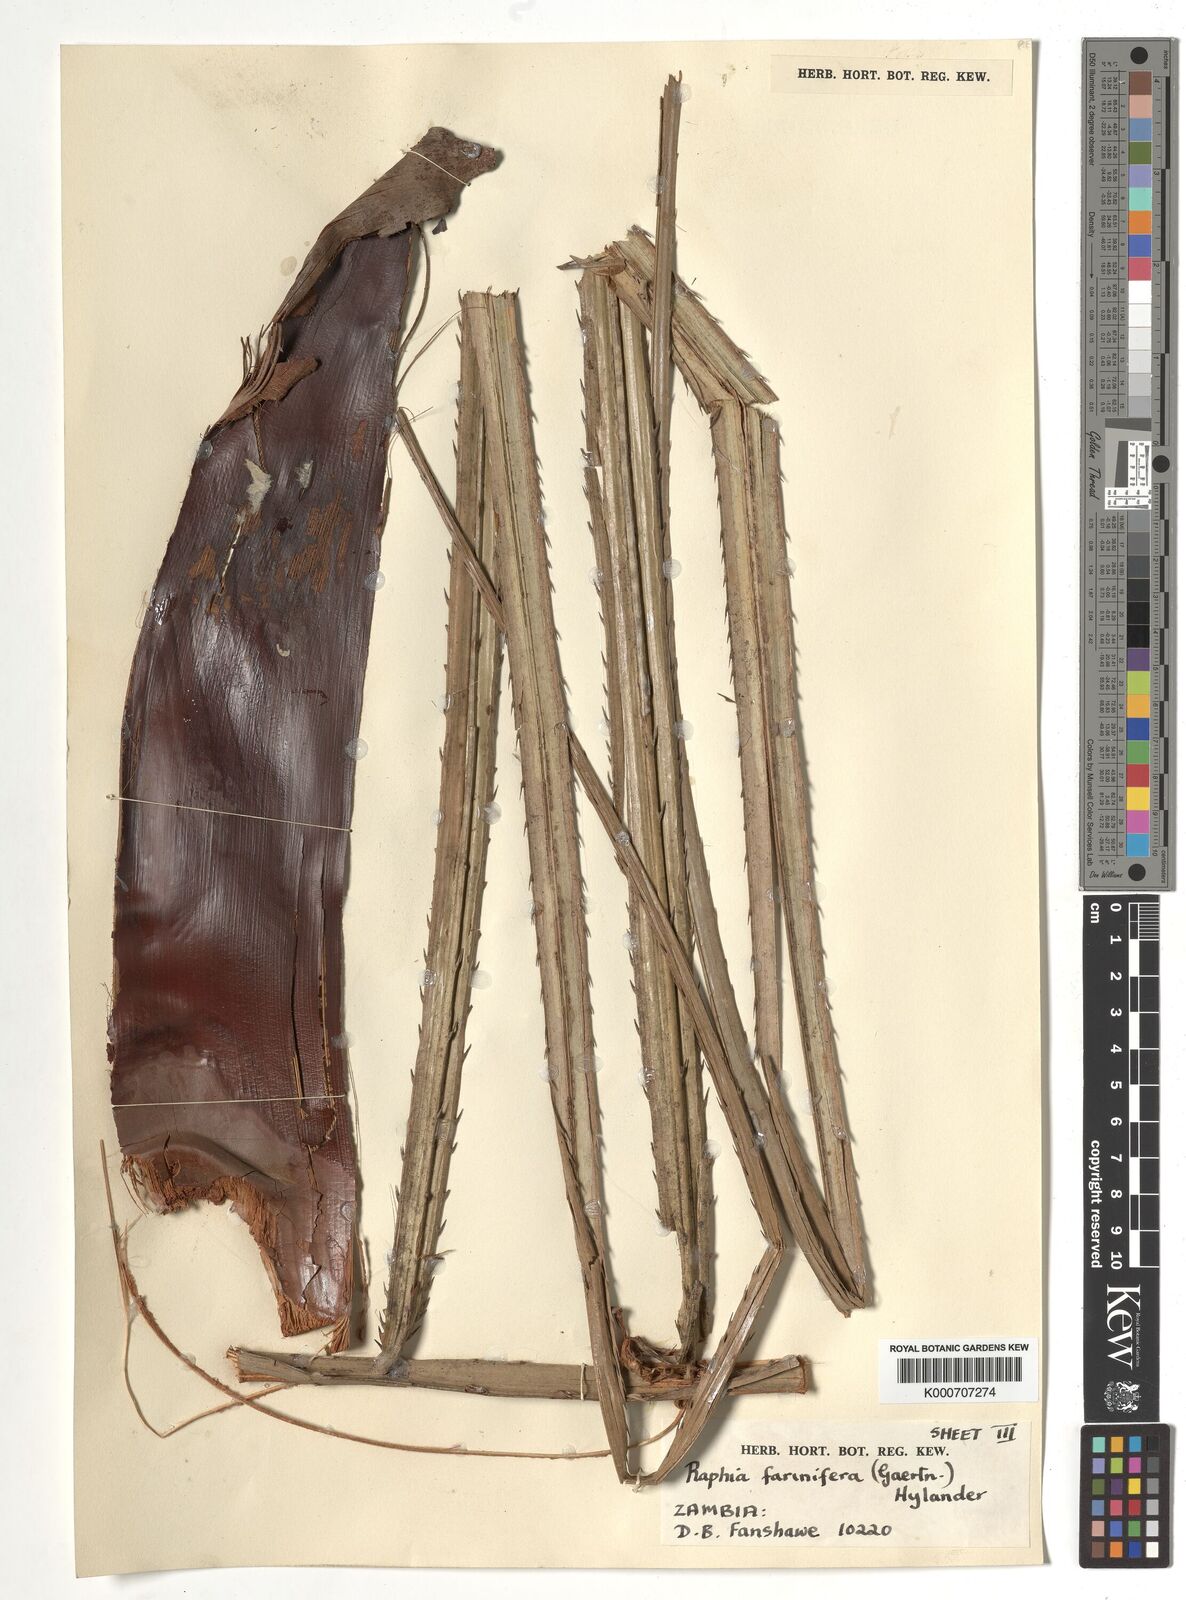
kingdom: Plantae
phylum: Tracheophyta
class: Liliopsida
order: Arecales
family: Arecaceae
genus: Raphia
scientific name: Raphia farinifera
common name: Raphia palm
